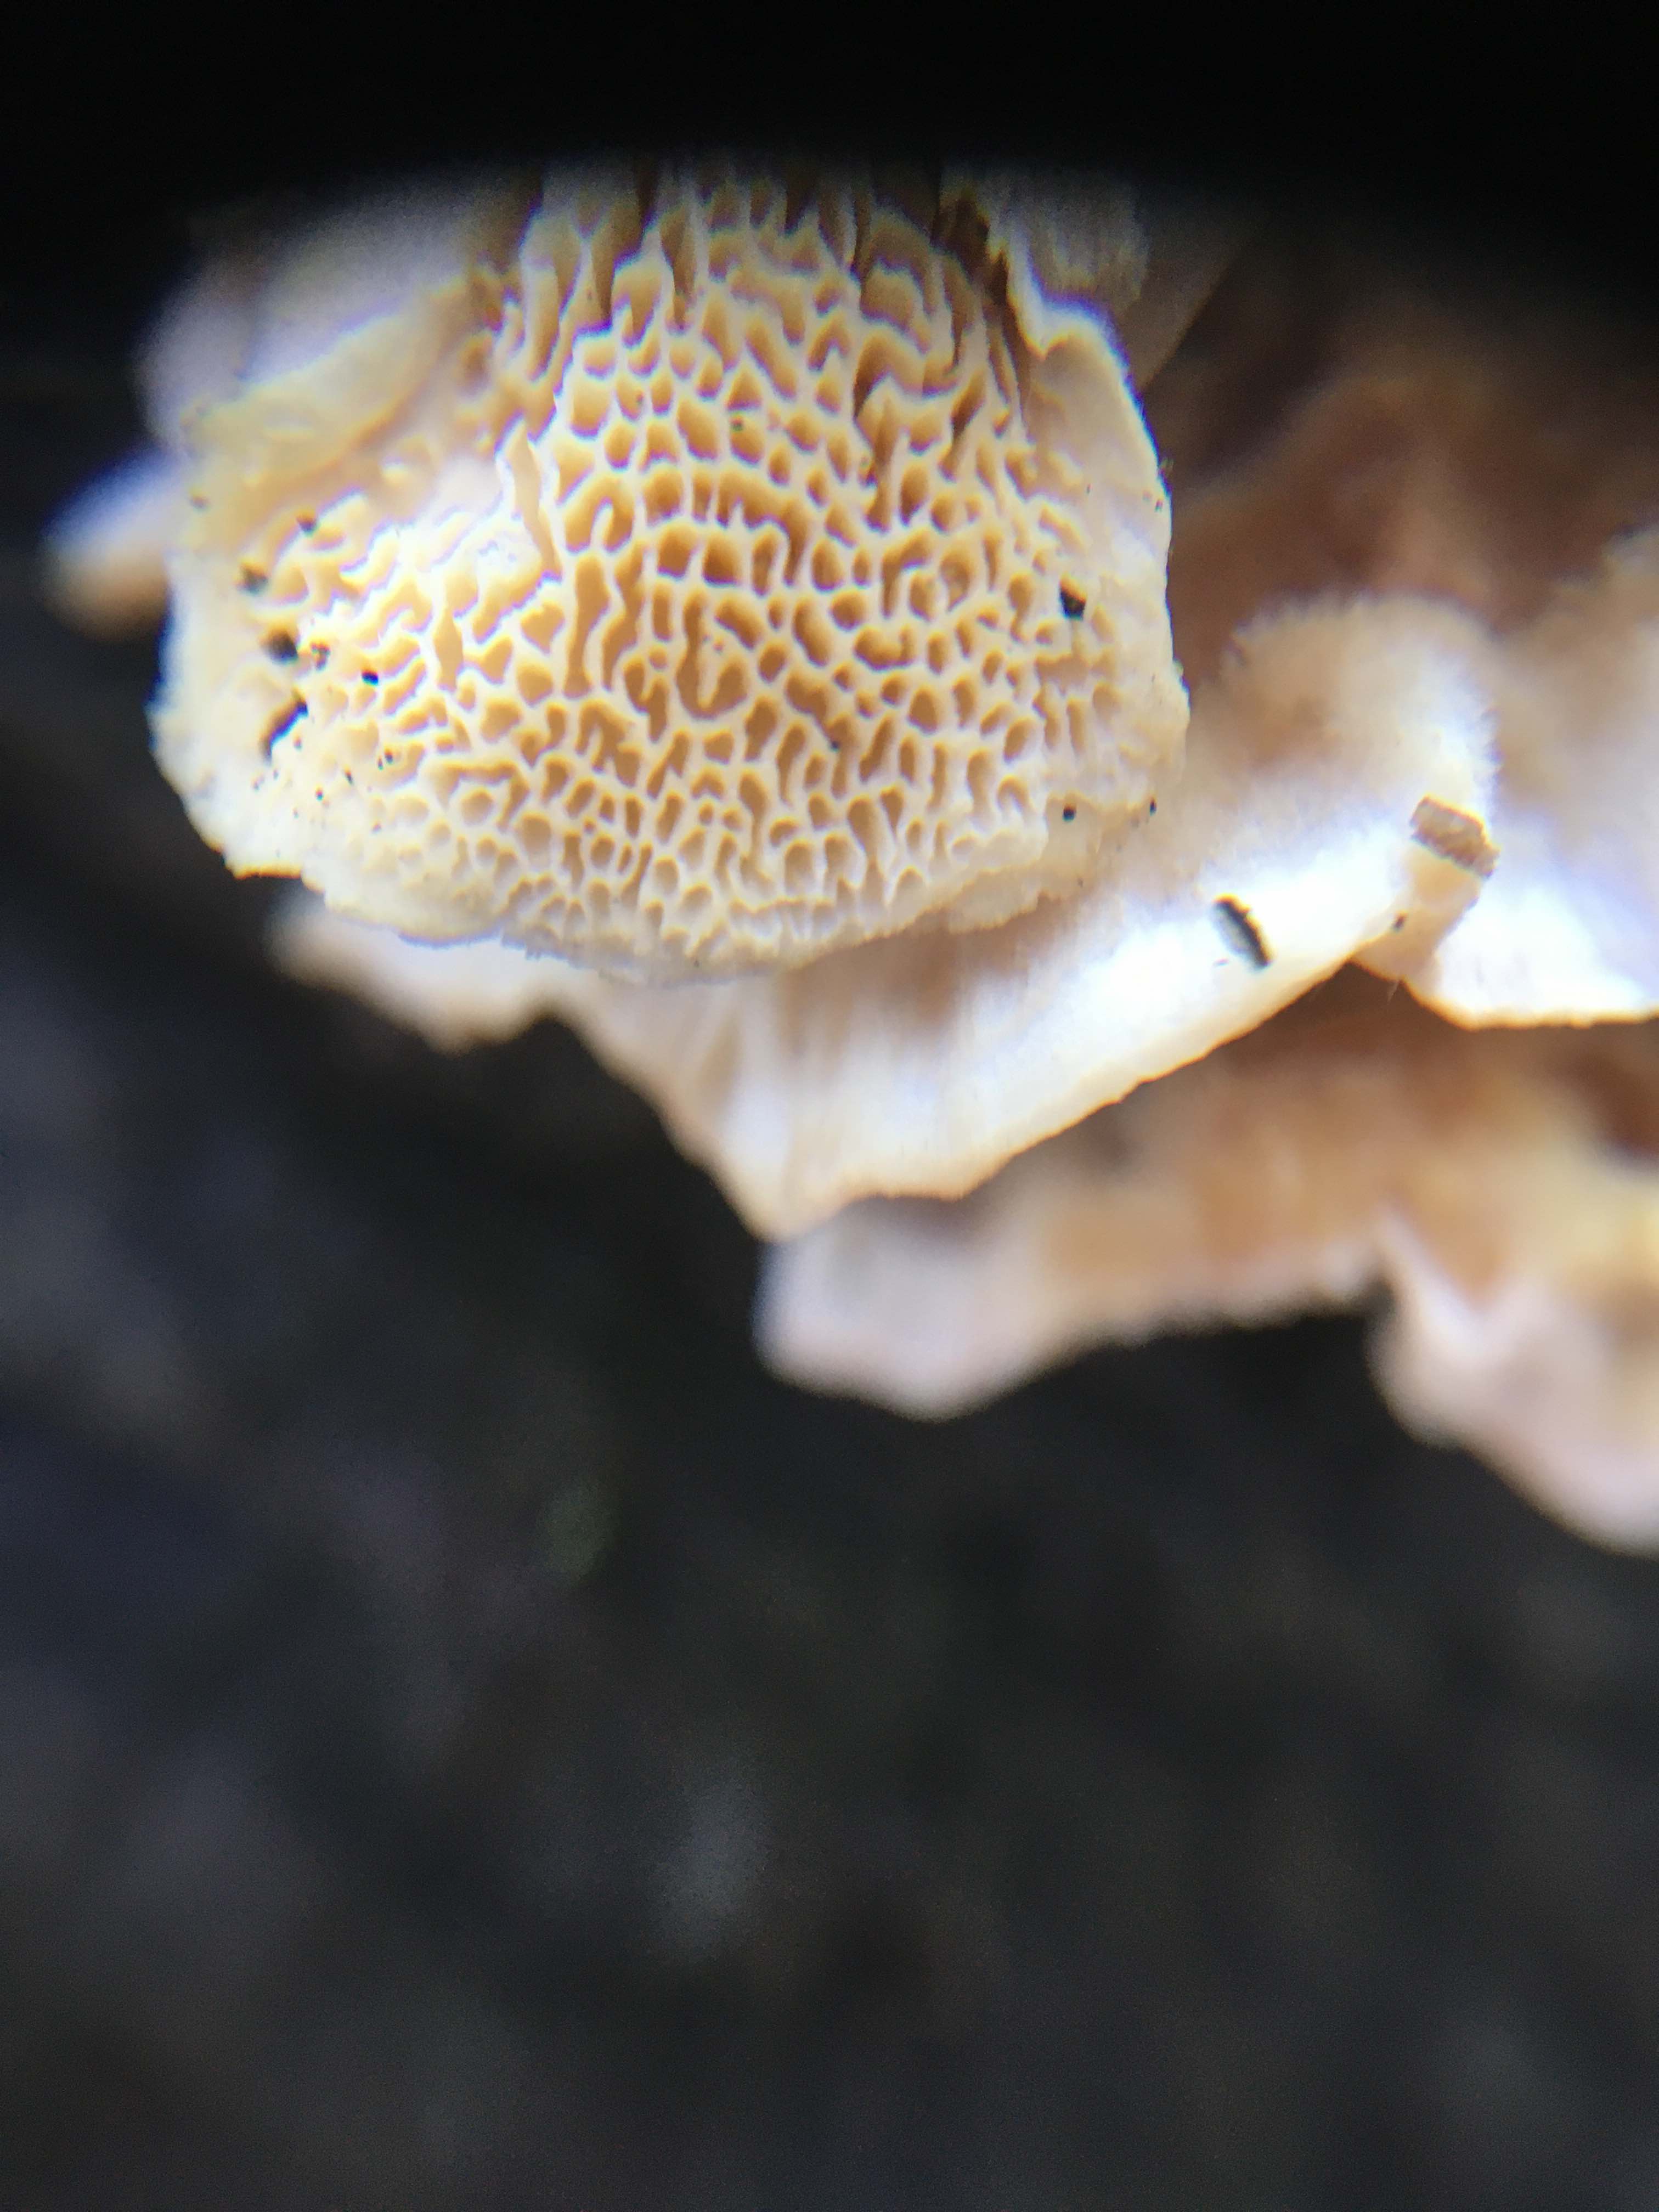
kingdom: Fungi
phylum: Basidiomycota
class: Agaricomycetes
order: Amylocorticiales
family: Amylocorticiaceae
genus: Plicaturopsis
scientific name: Plicaturopsis crispa
